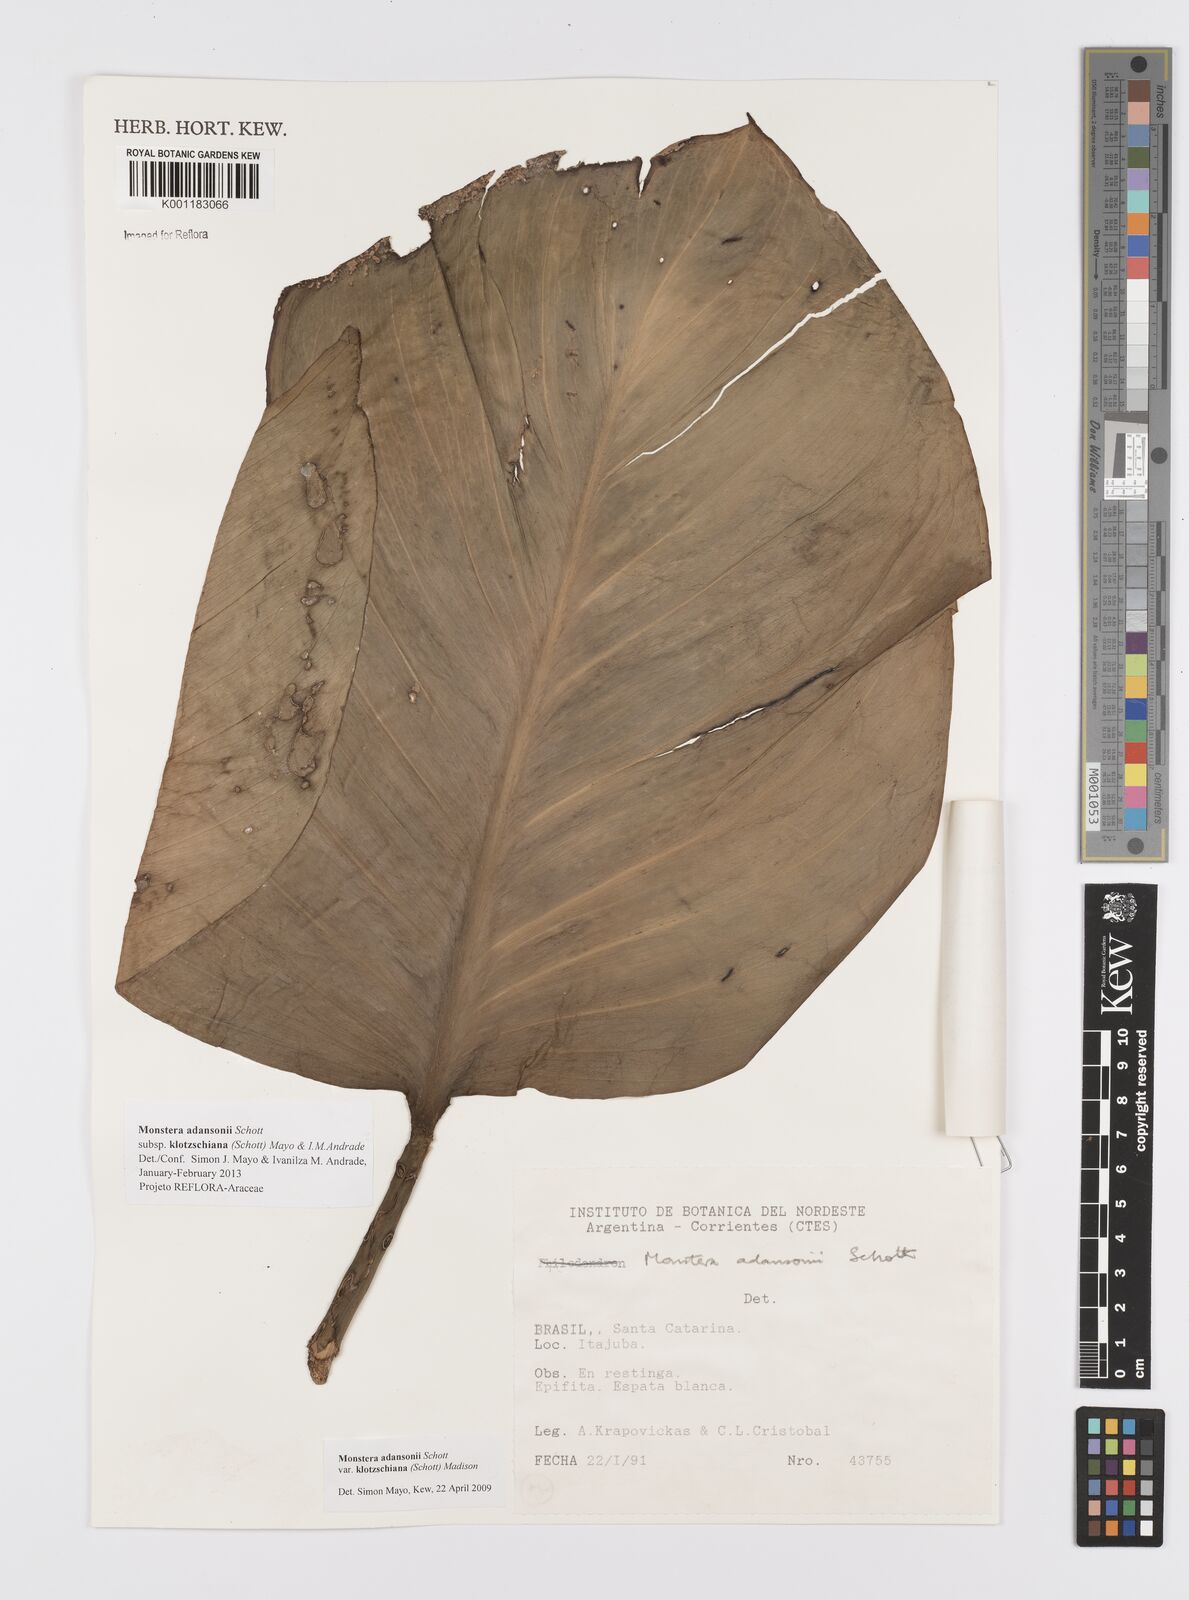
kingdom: Plantae
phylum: Tracheophyta
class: Liliopsida
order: Alismatales
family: Araceae
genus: Monstera
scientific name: Monstera adansonii
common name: Tarovine
